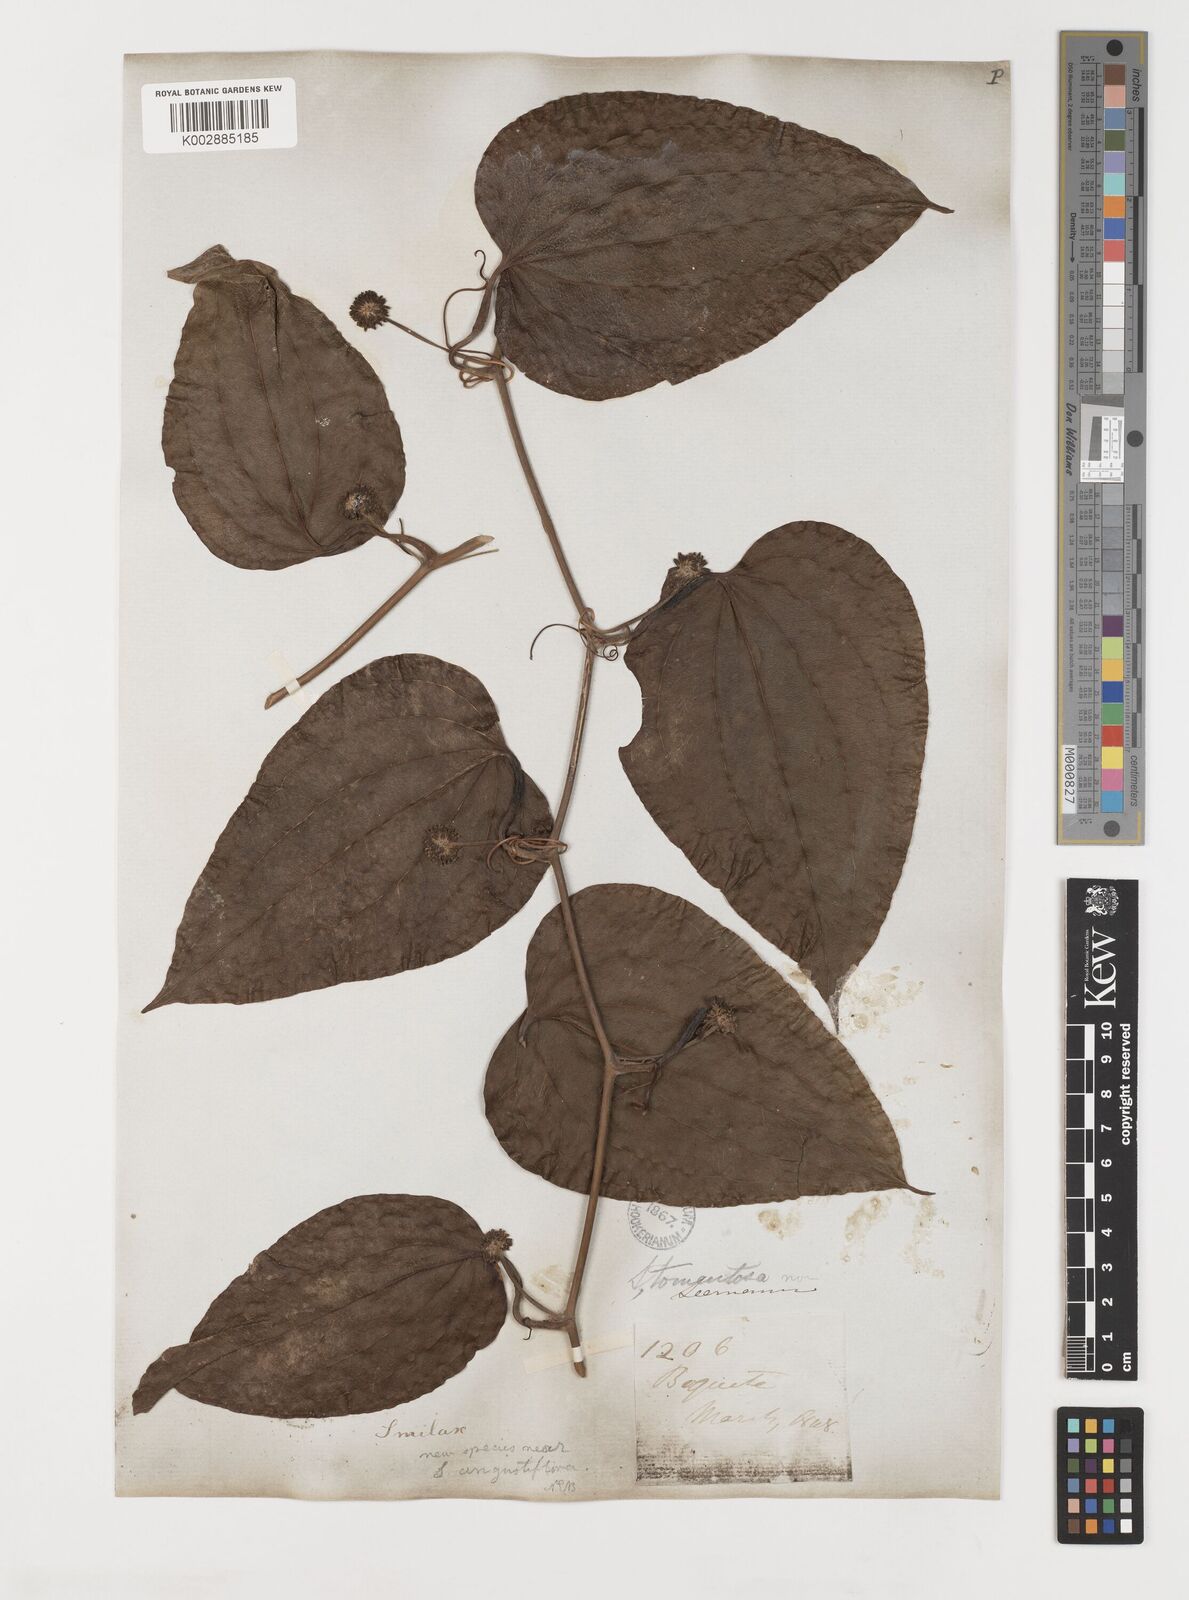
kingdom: Plantae
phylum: Tracheophyta
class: Liliopsida
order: Liliales
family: Smilacaceae
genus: Smilax
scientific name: Smilax tomentosa
